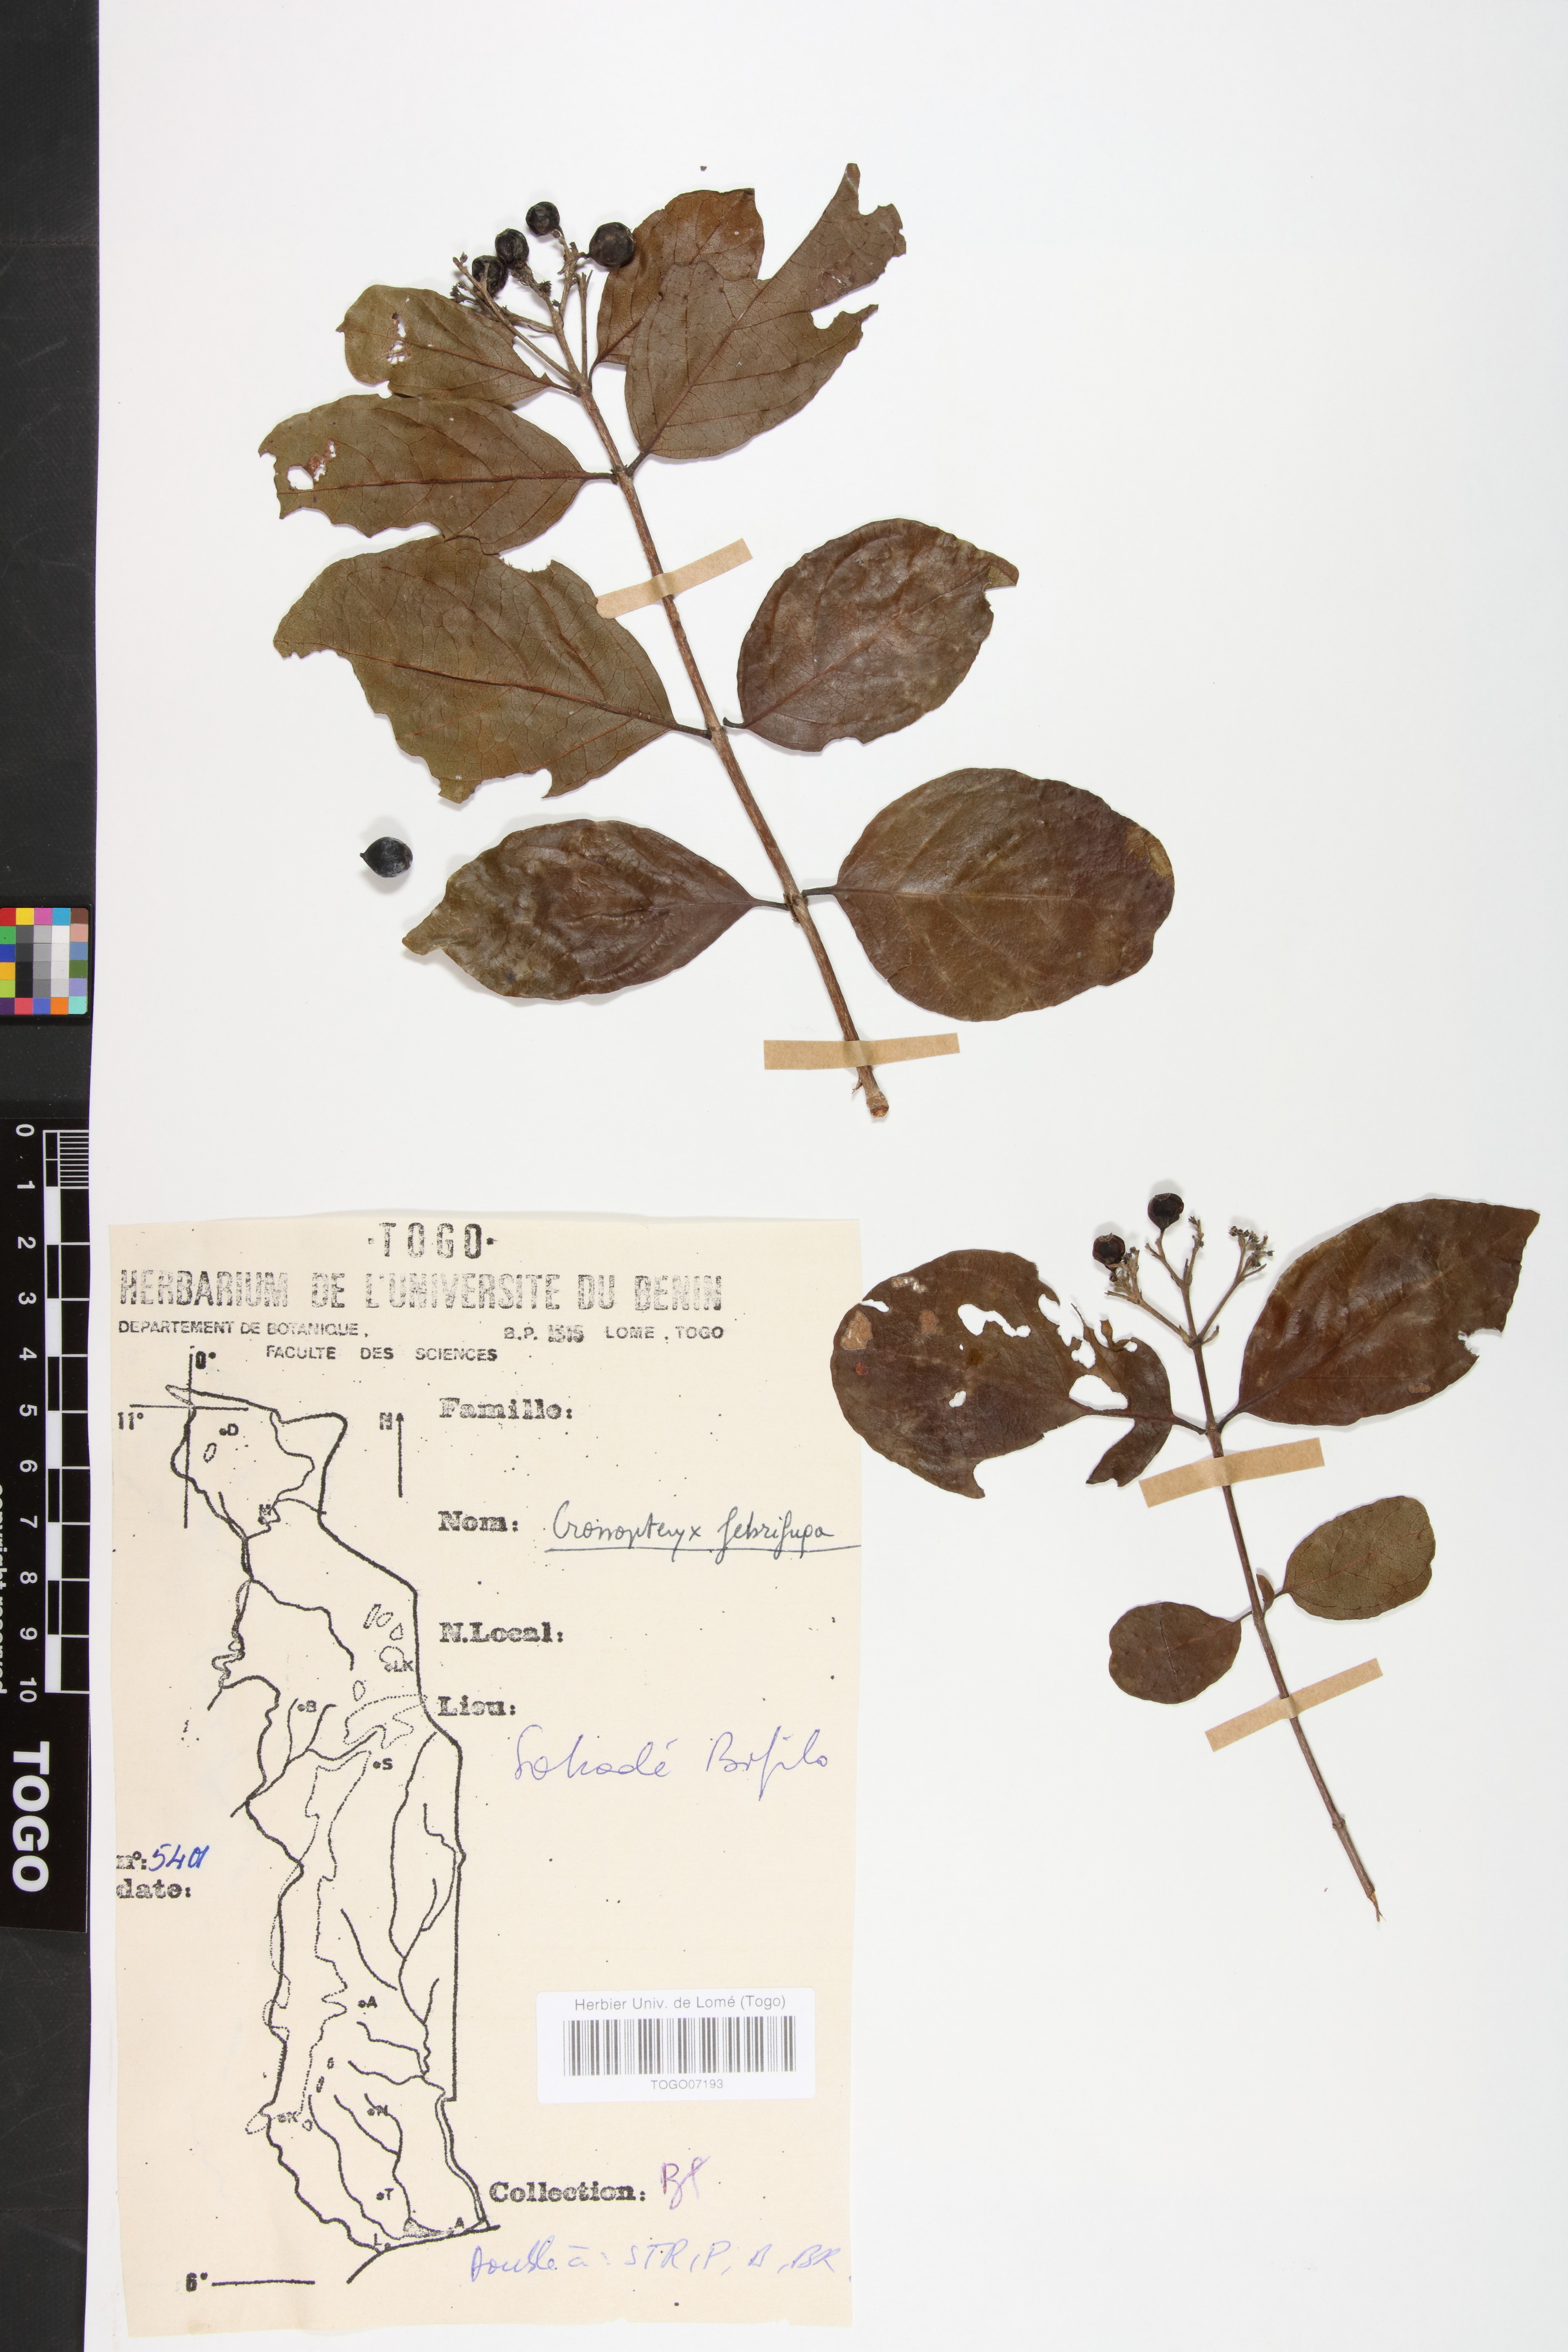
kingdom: Plantae
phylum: Tracheophyta
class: Magnoliopsida
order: Gentianales
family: Rubiaceae
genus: Crossopteryx
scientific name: Crossopteryx febrifuga
